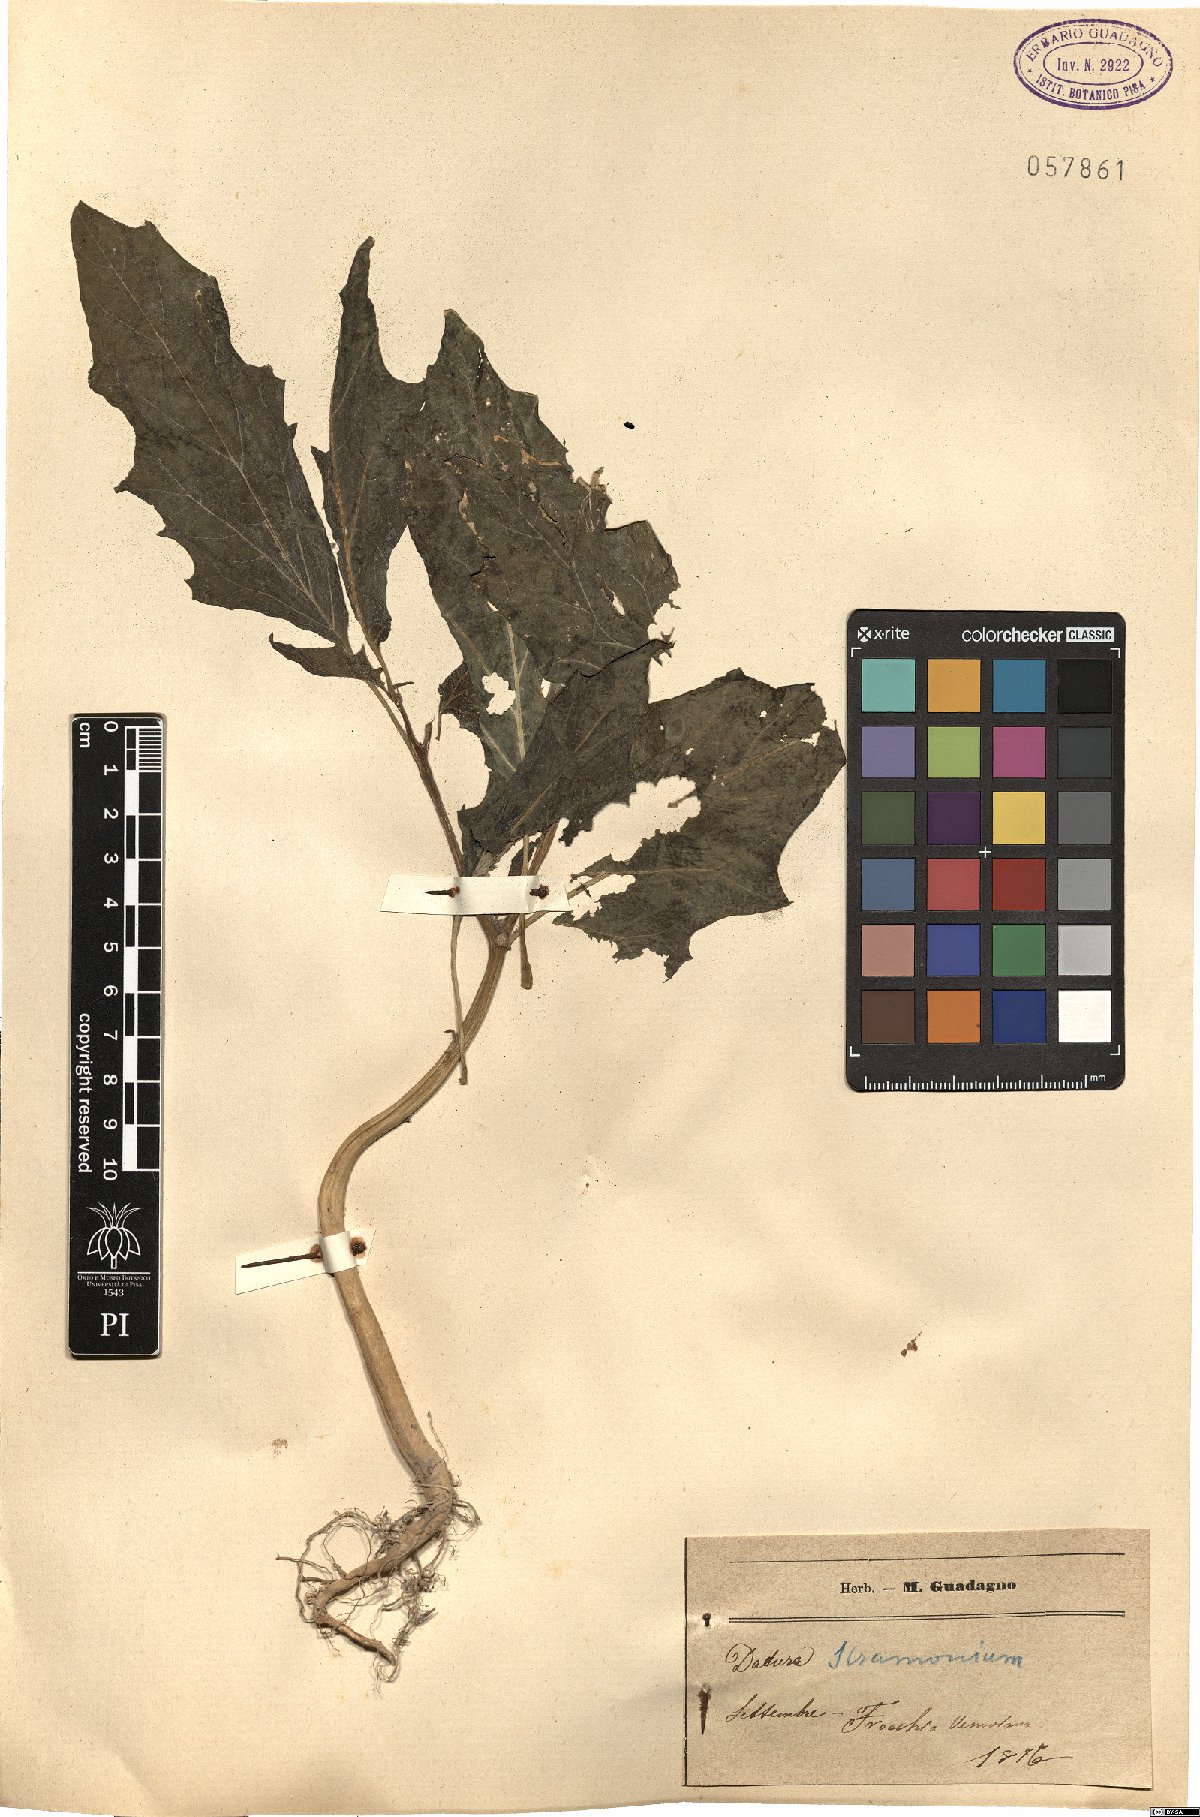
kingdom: Plantae
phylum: Tracheophyta
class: Magnoliopsida
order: Solanales
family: Solanaceae
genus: Datura
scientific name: Datura stramonium
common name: Thorn-apple
